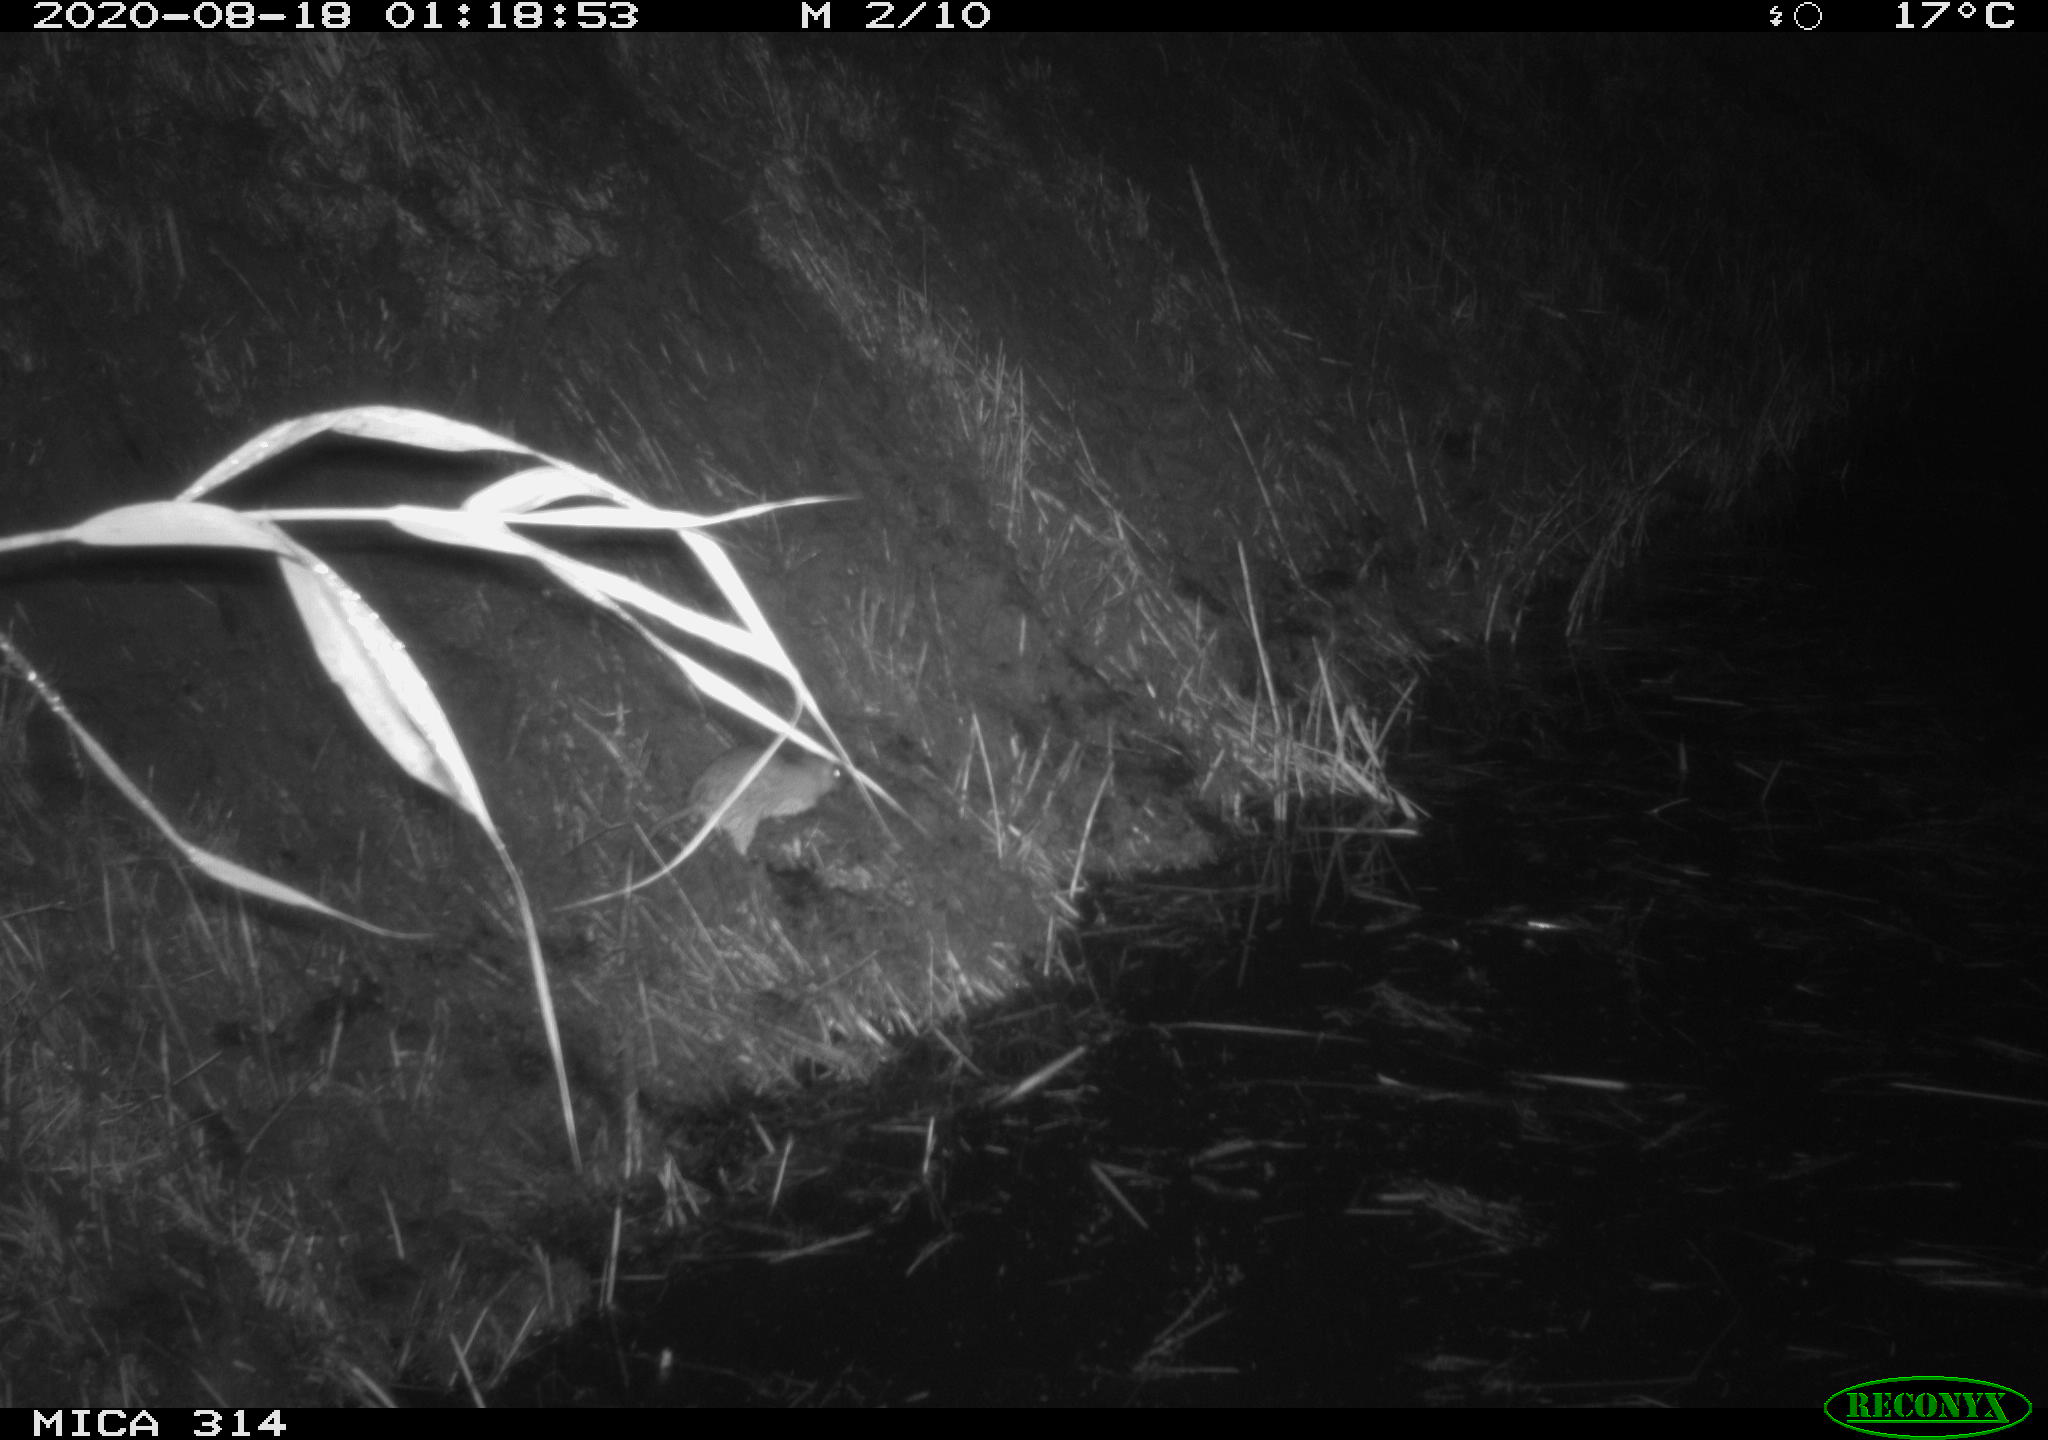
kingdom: Animalia
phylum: Chordata
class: Mammalia
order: Rodentia
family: Muridae
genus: Rattus
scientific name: Rattus norvegicus
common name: Brown rat
